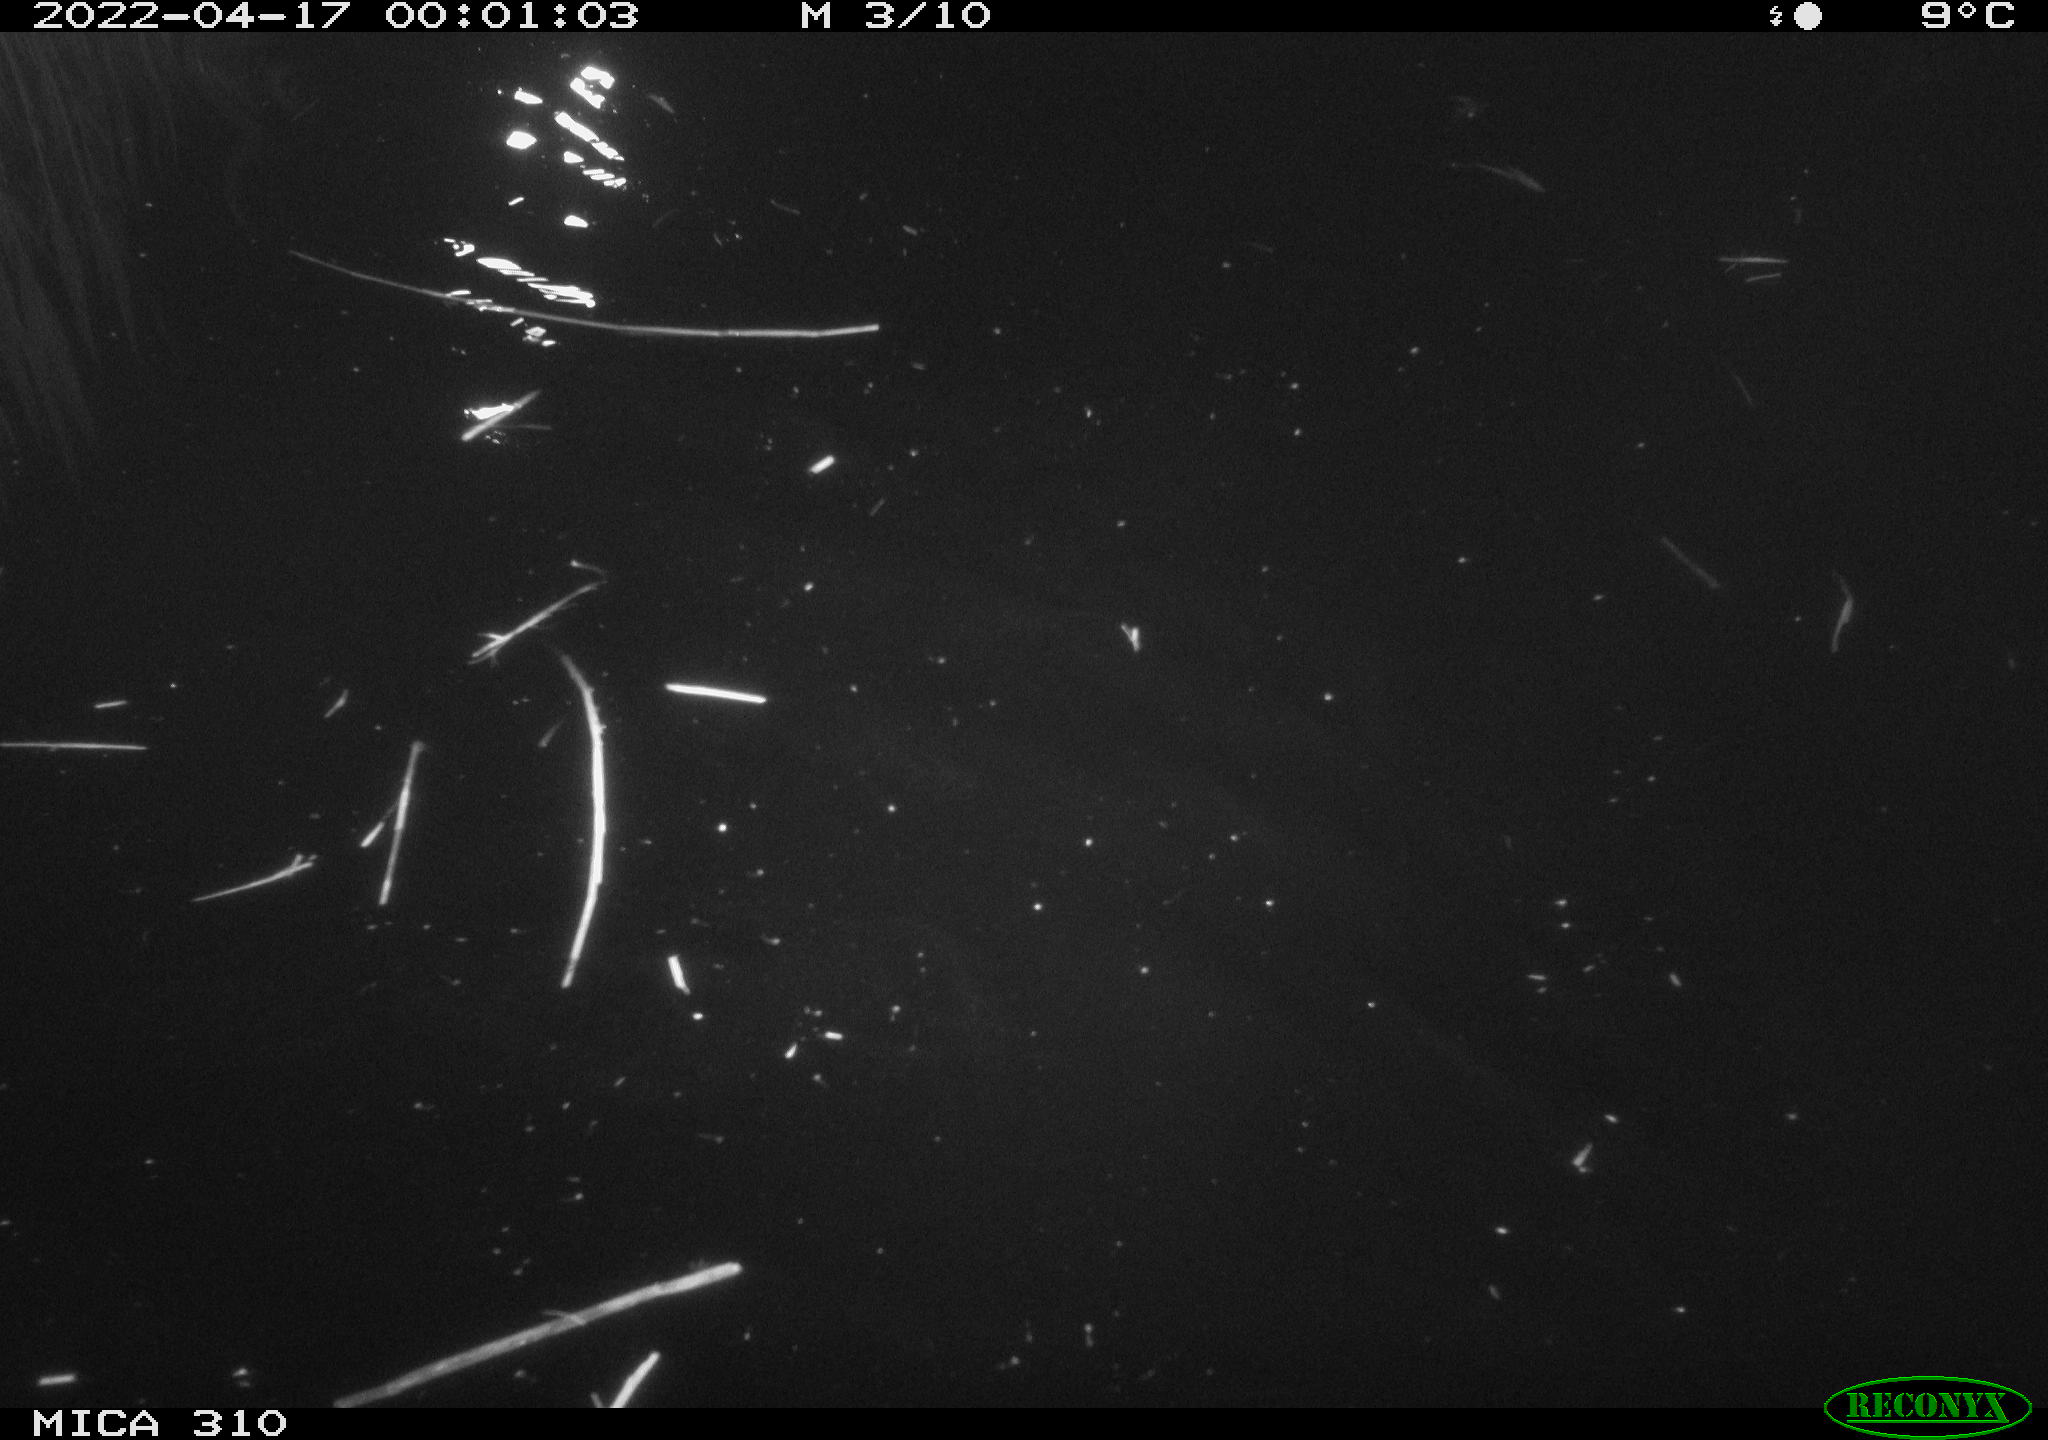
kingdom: Animalia
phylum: Chordata
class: Aves
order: Anseriformes
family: Anatidae
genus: Anas
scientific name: Anas platyrhynchos
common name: Mallard
